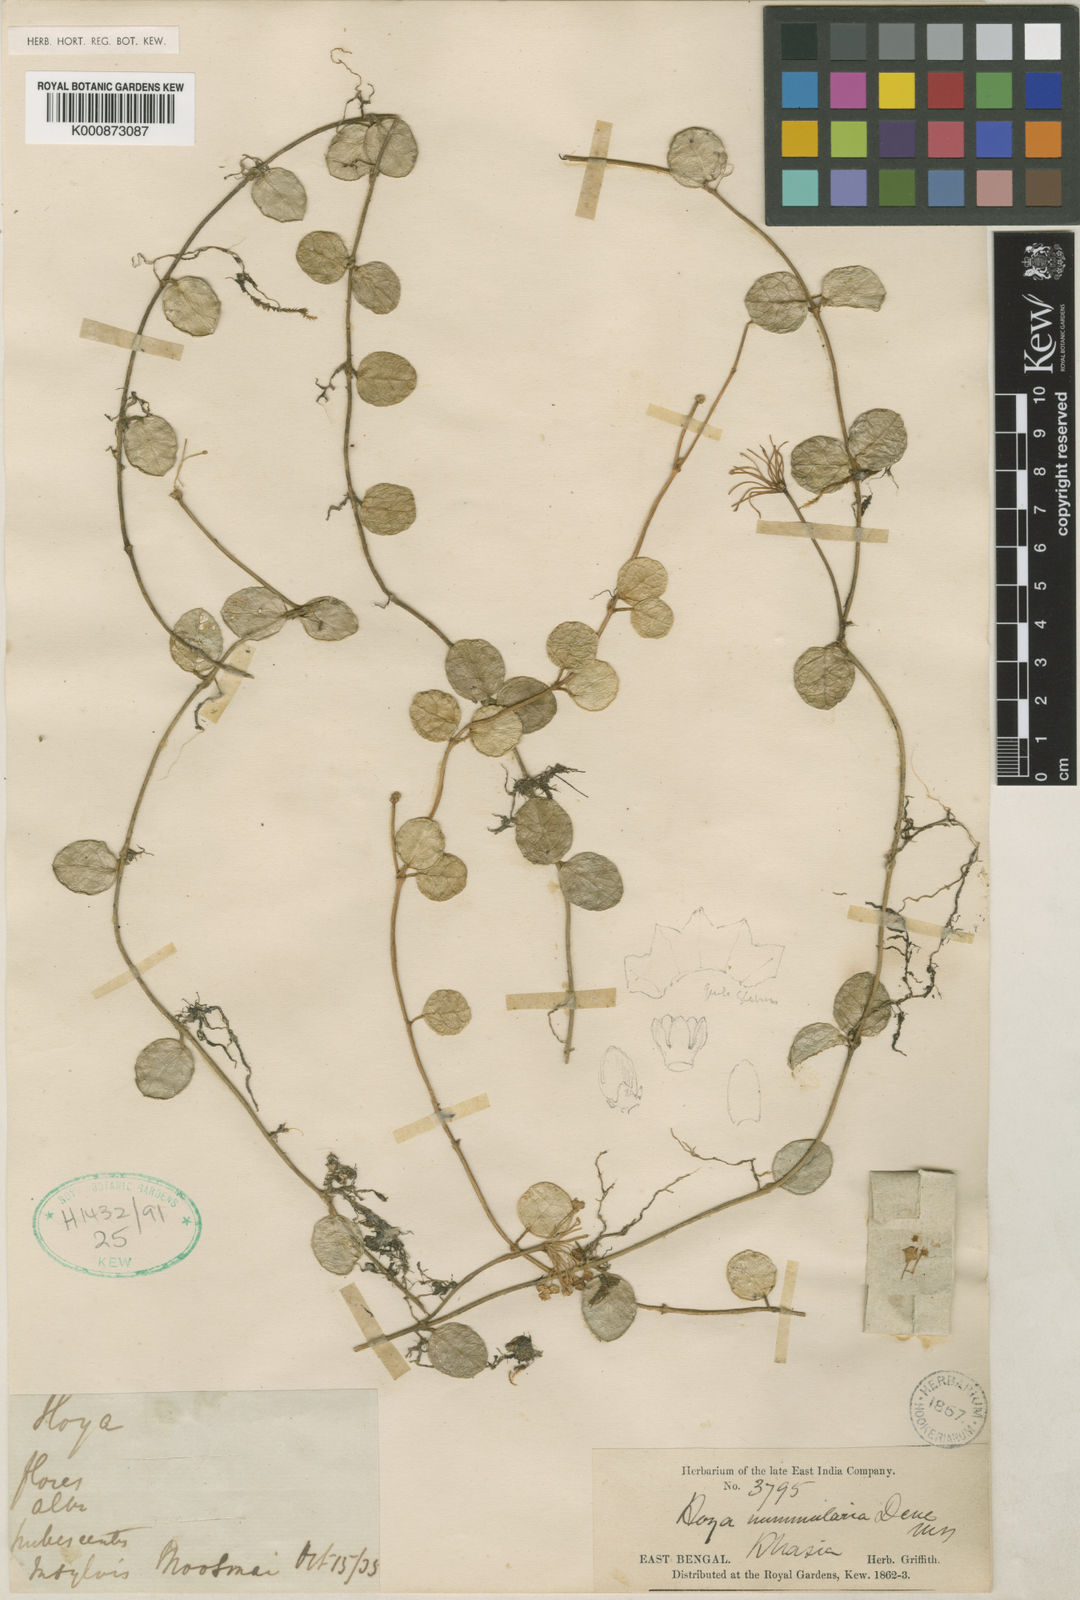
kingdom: Plantae
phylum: Tracheophyta
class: Magnoliopsida
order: Gentianales
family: Apocynaceae
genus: Hoya
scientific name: Hoya nummularia
